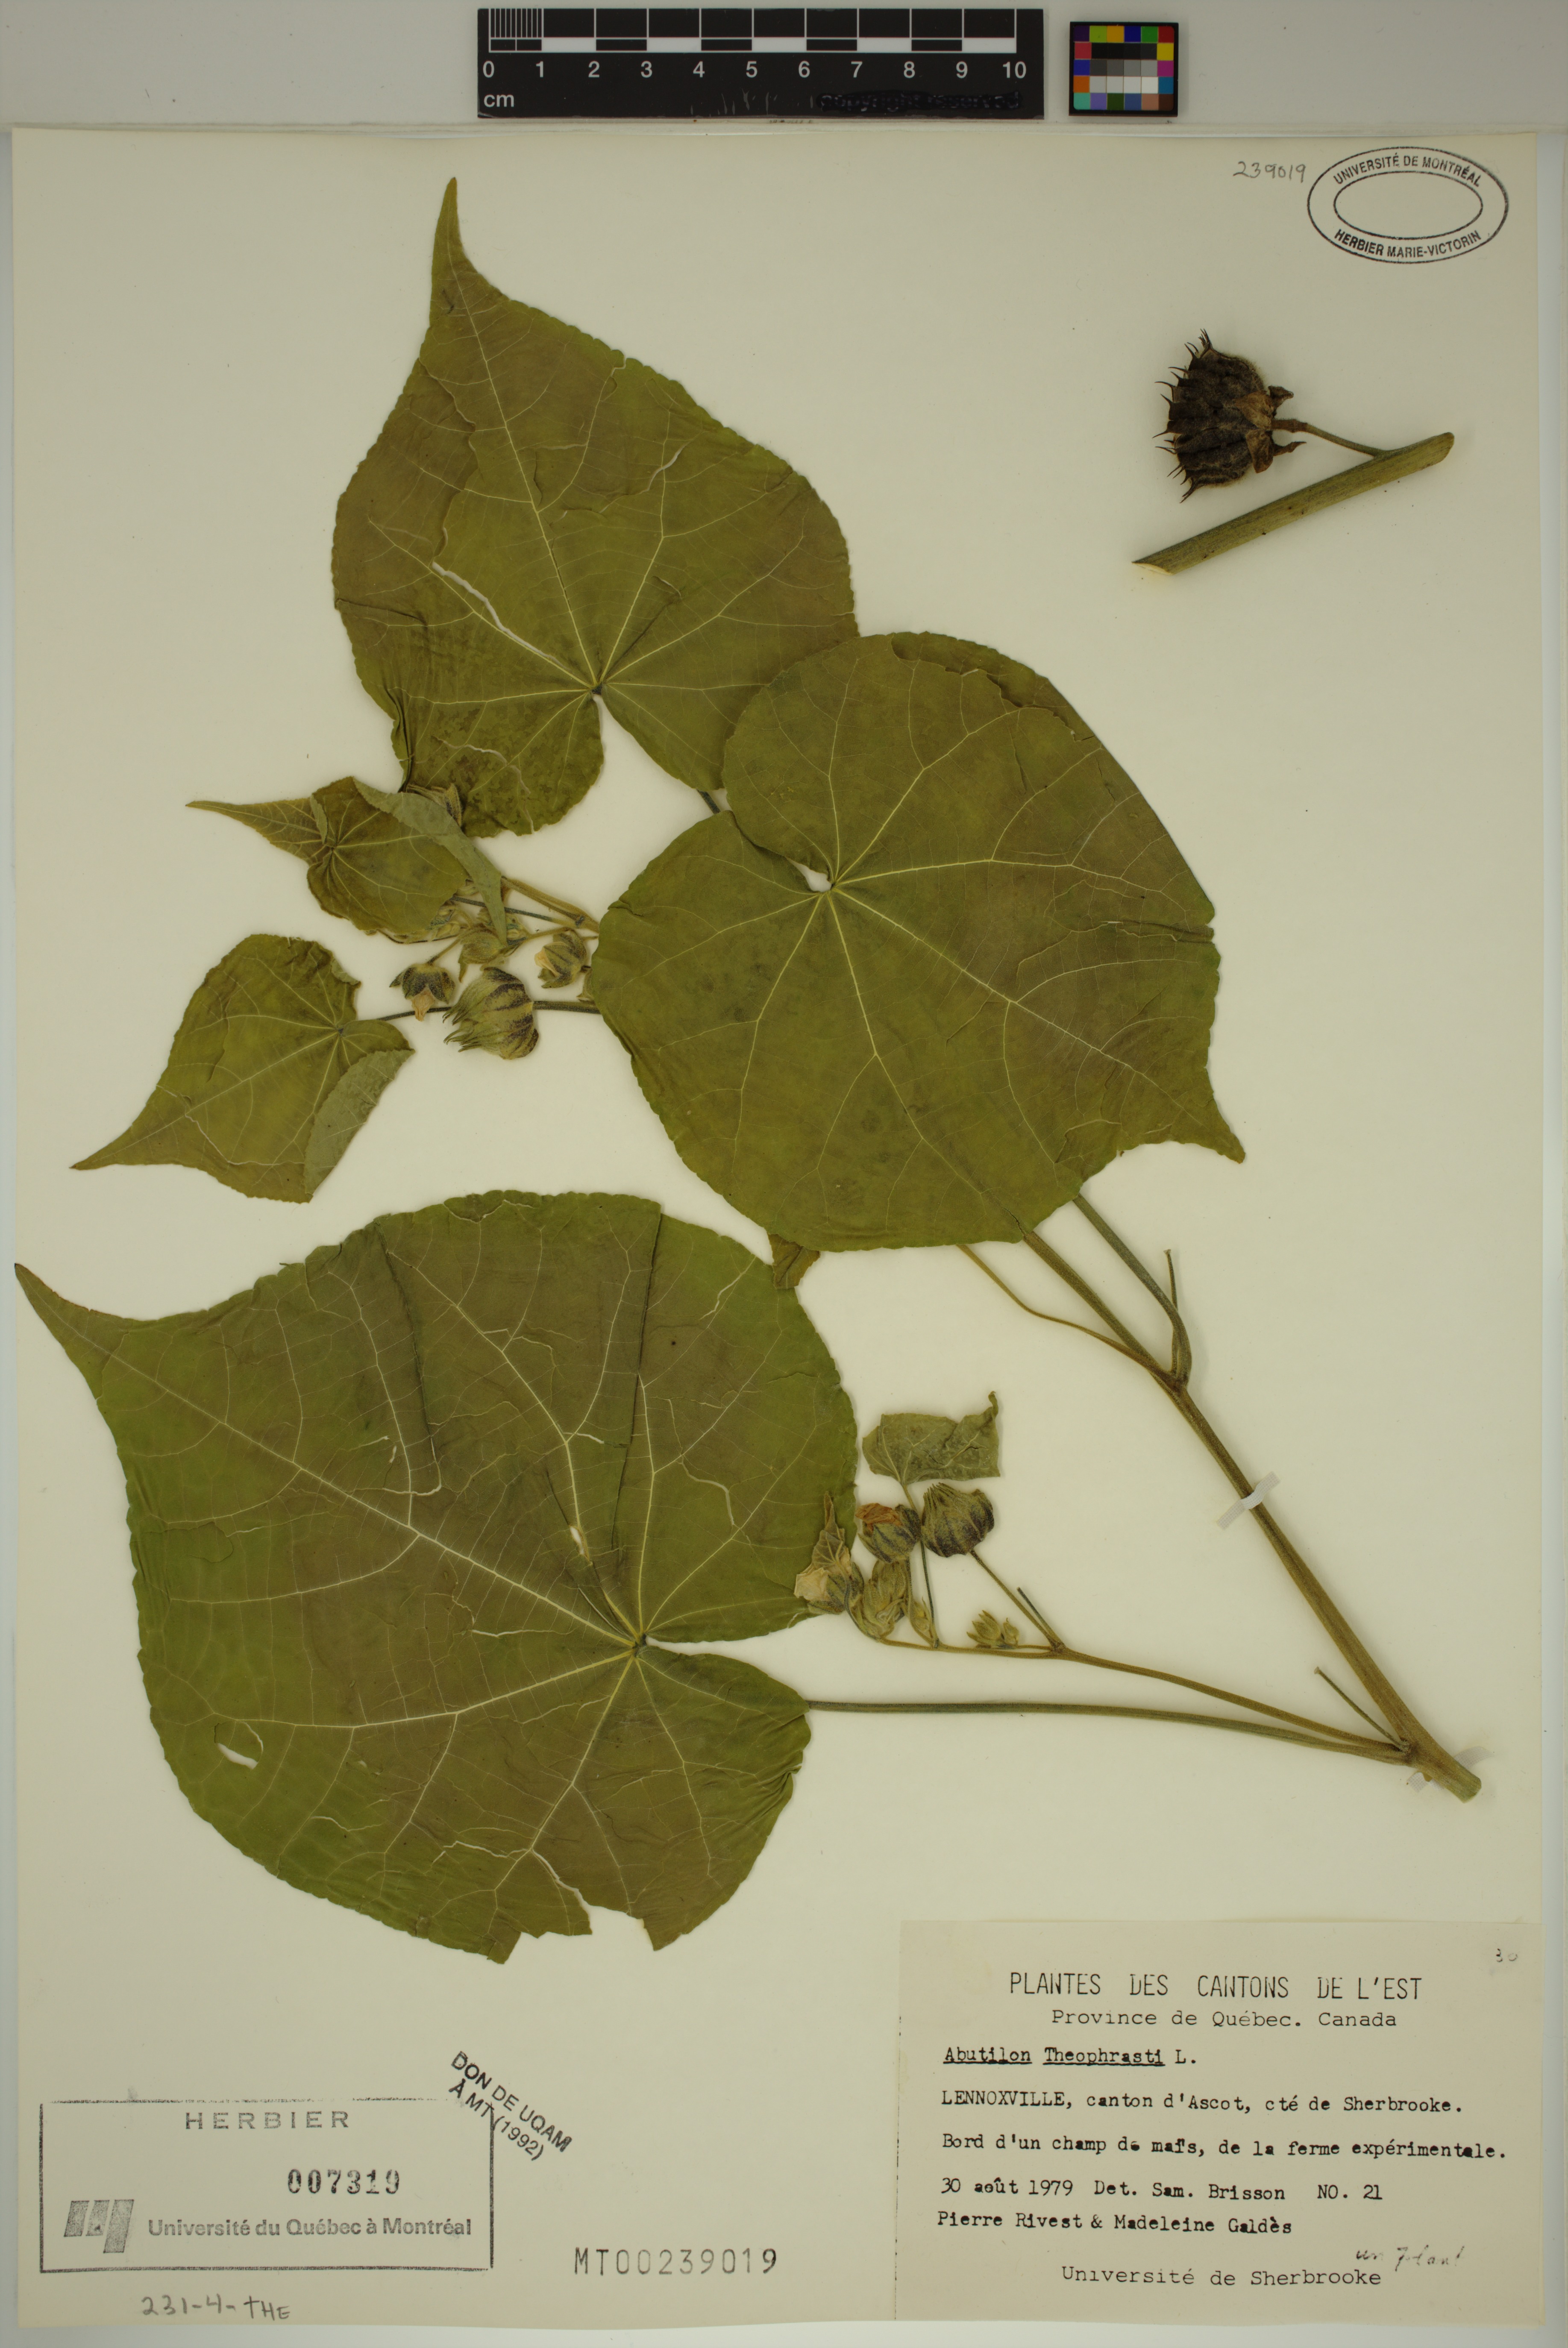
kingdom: Plantae
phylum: Tracheophyta
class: Magnoliopsida
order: Malvales
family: Malvaceae
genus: Abutilon
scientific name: Abutilon theophrasti
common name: Velvetleaf
